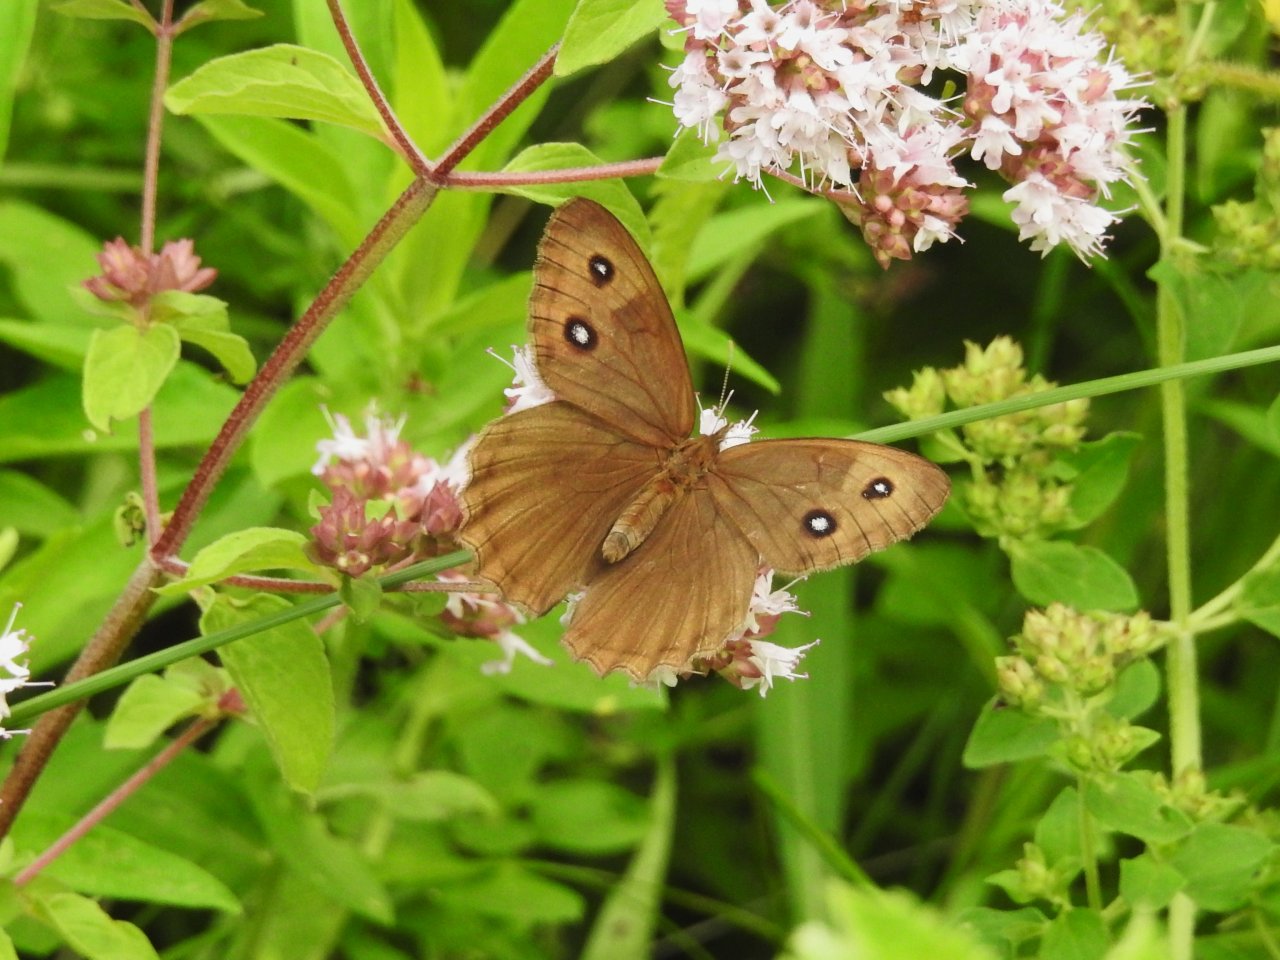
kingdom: Animalia
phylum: Arthropoda
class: Insecta
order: Lepidoptera
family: Nymphalidae
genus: Cercyonis
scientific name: Cercyonis pegala
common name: Common Wood-Nymph
